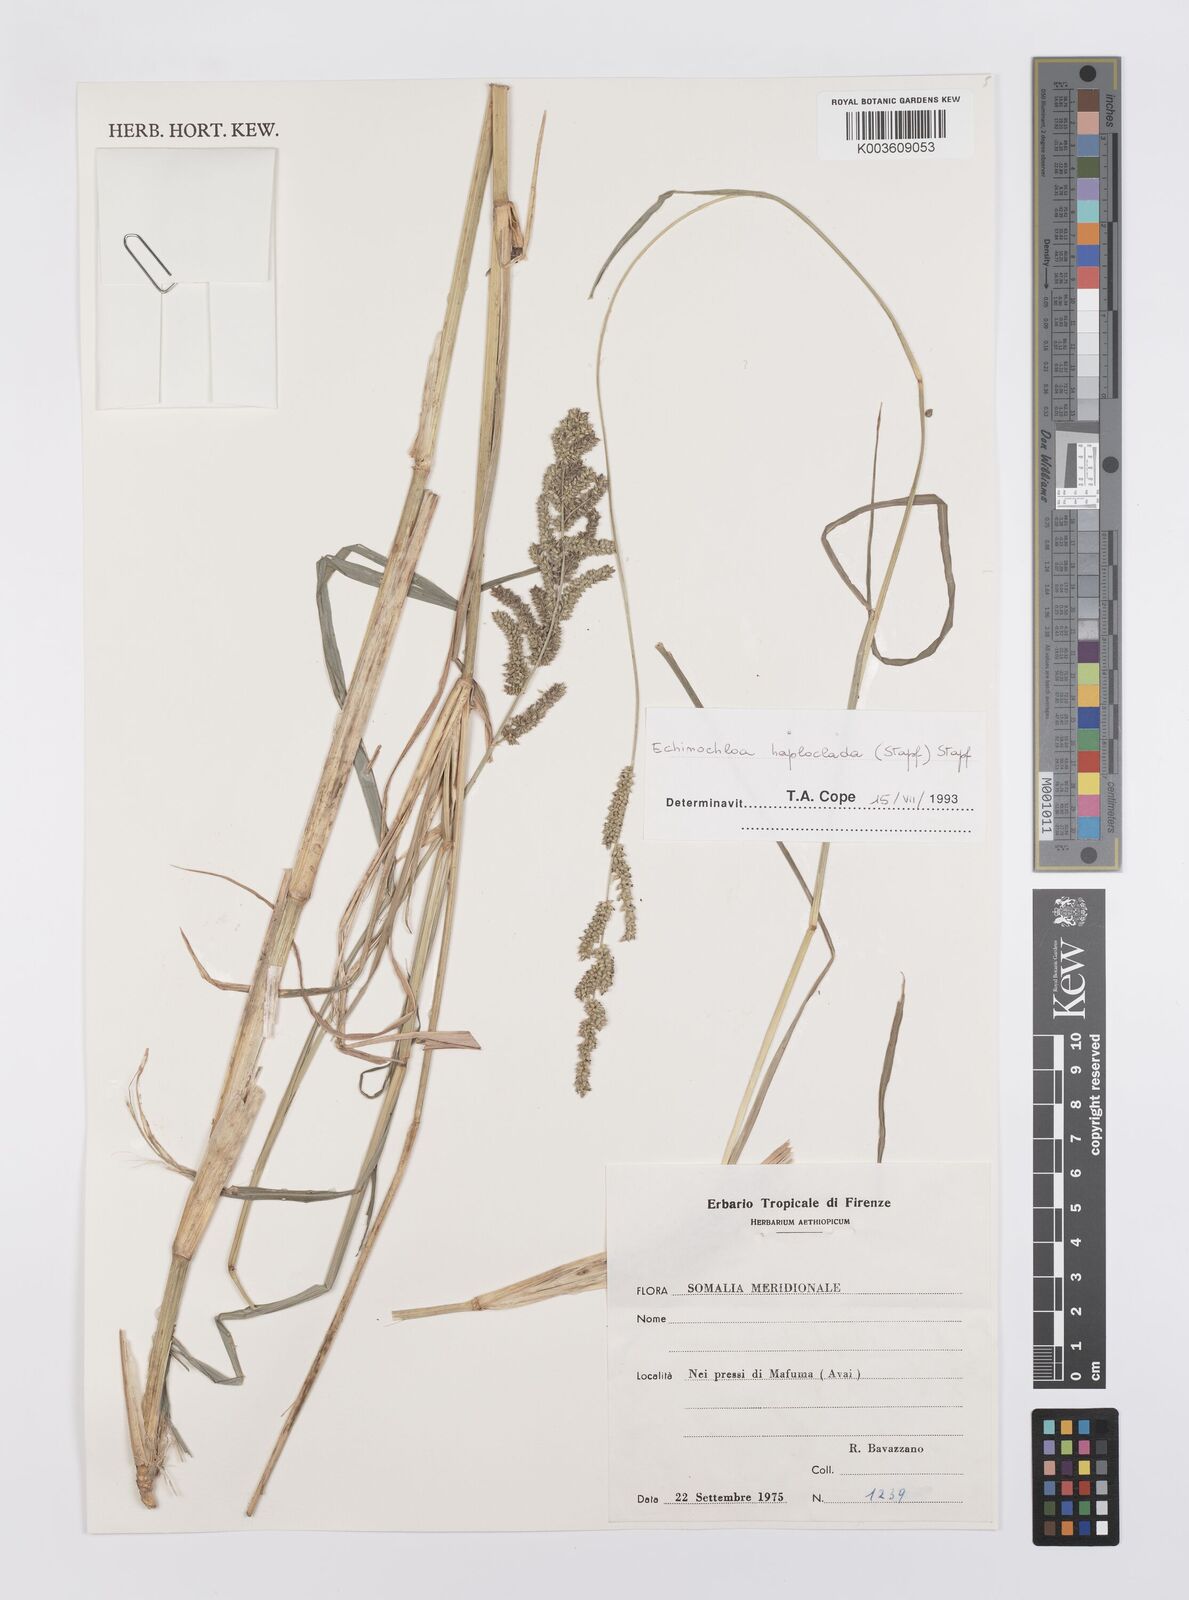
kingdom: Plantae
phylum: Tracheophyta
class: Liliopsida
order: Poales
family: Poaceae
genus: Echinochloa
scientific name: Echinochloa haploclada
